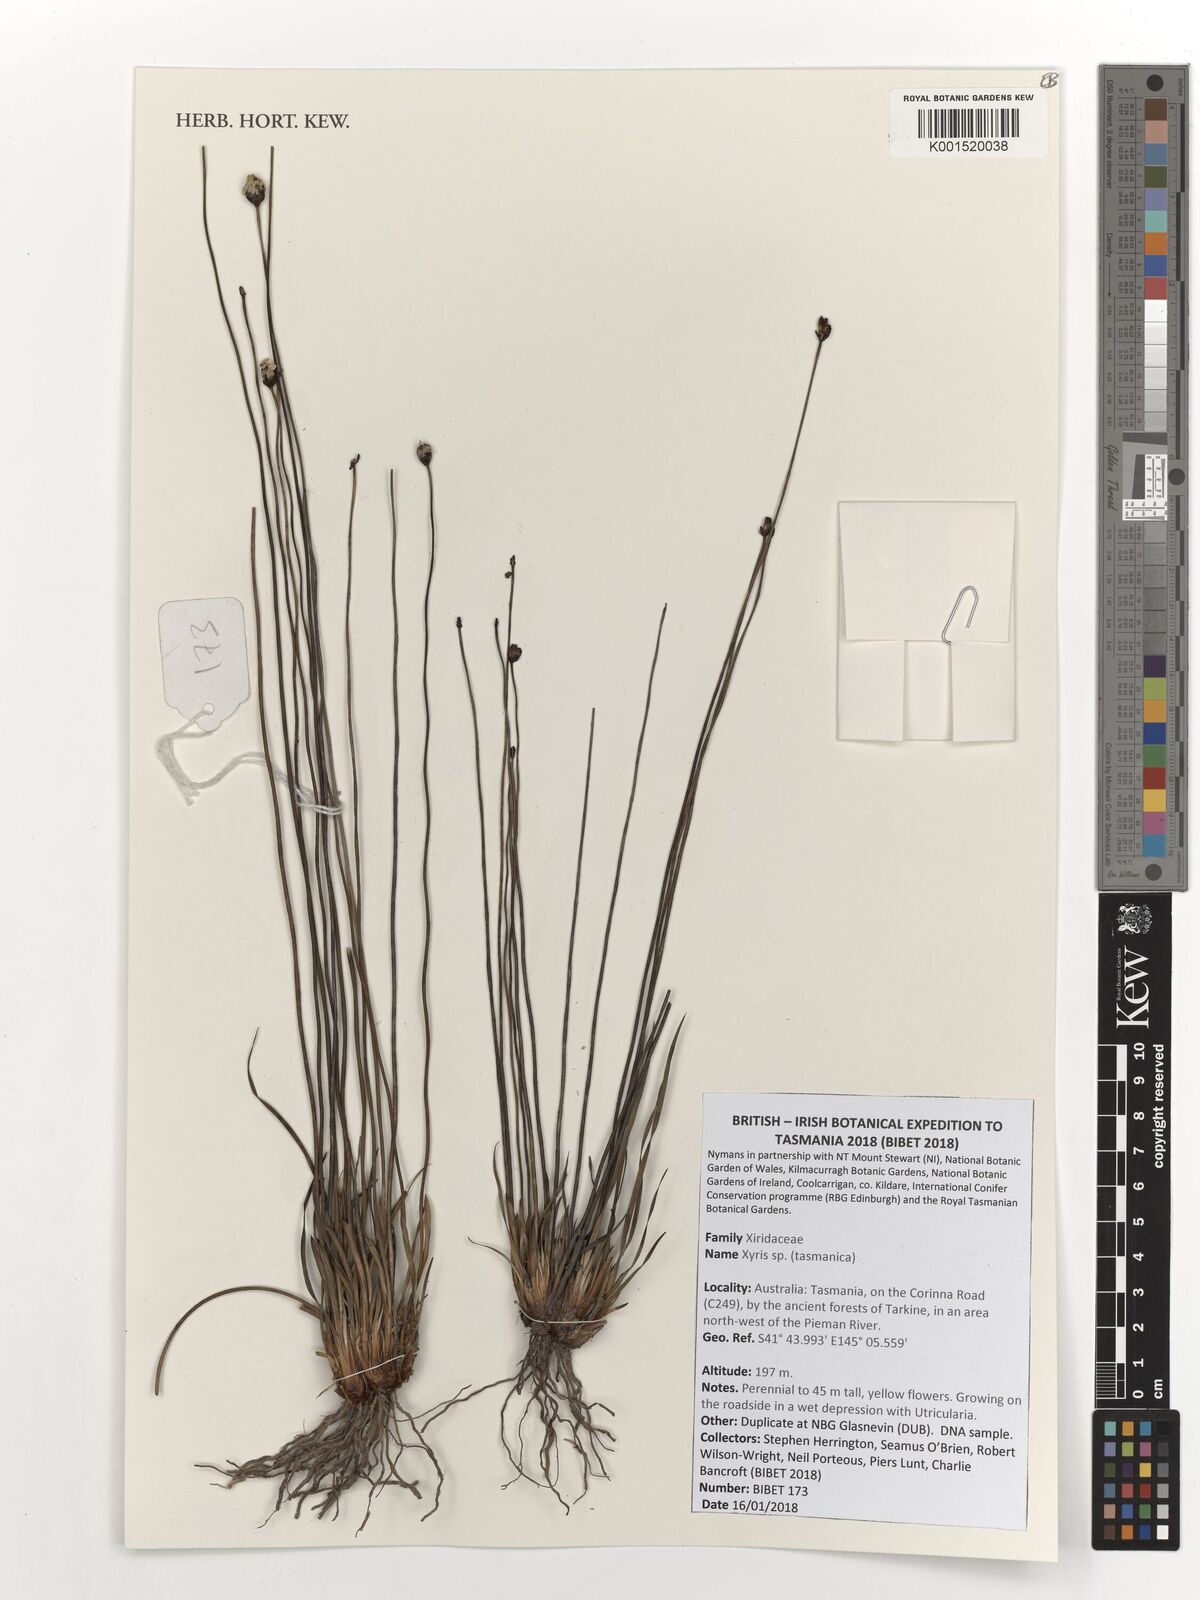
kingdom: Plantae
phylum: Tracheophyta
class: Liliopsida
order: Poales
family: Xyridaceae
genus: Xyris
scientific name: Xyris
